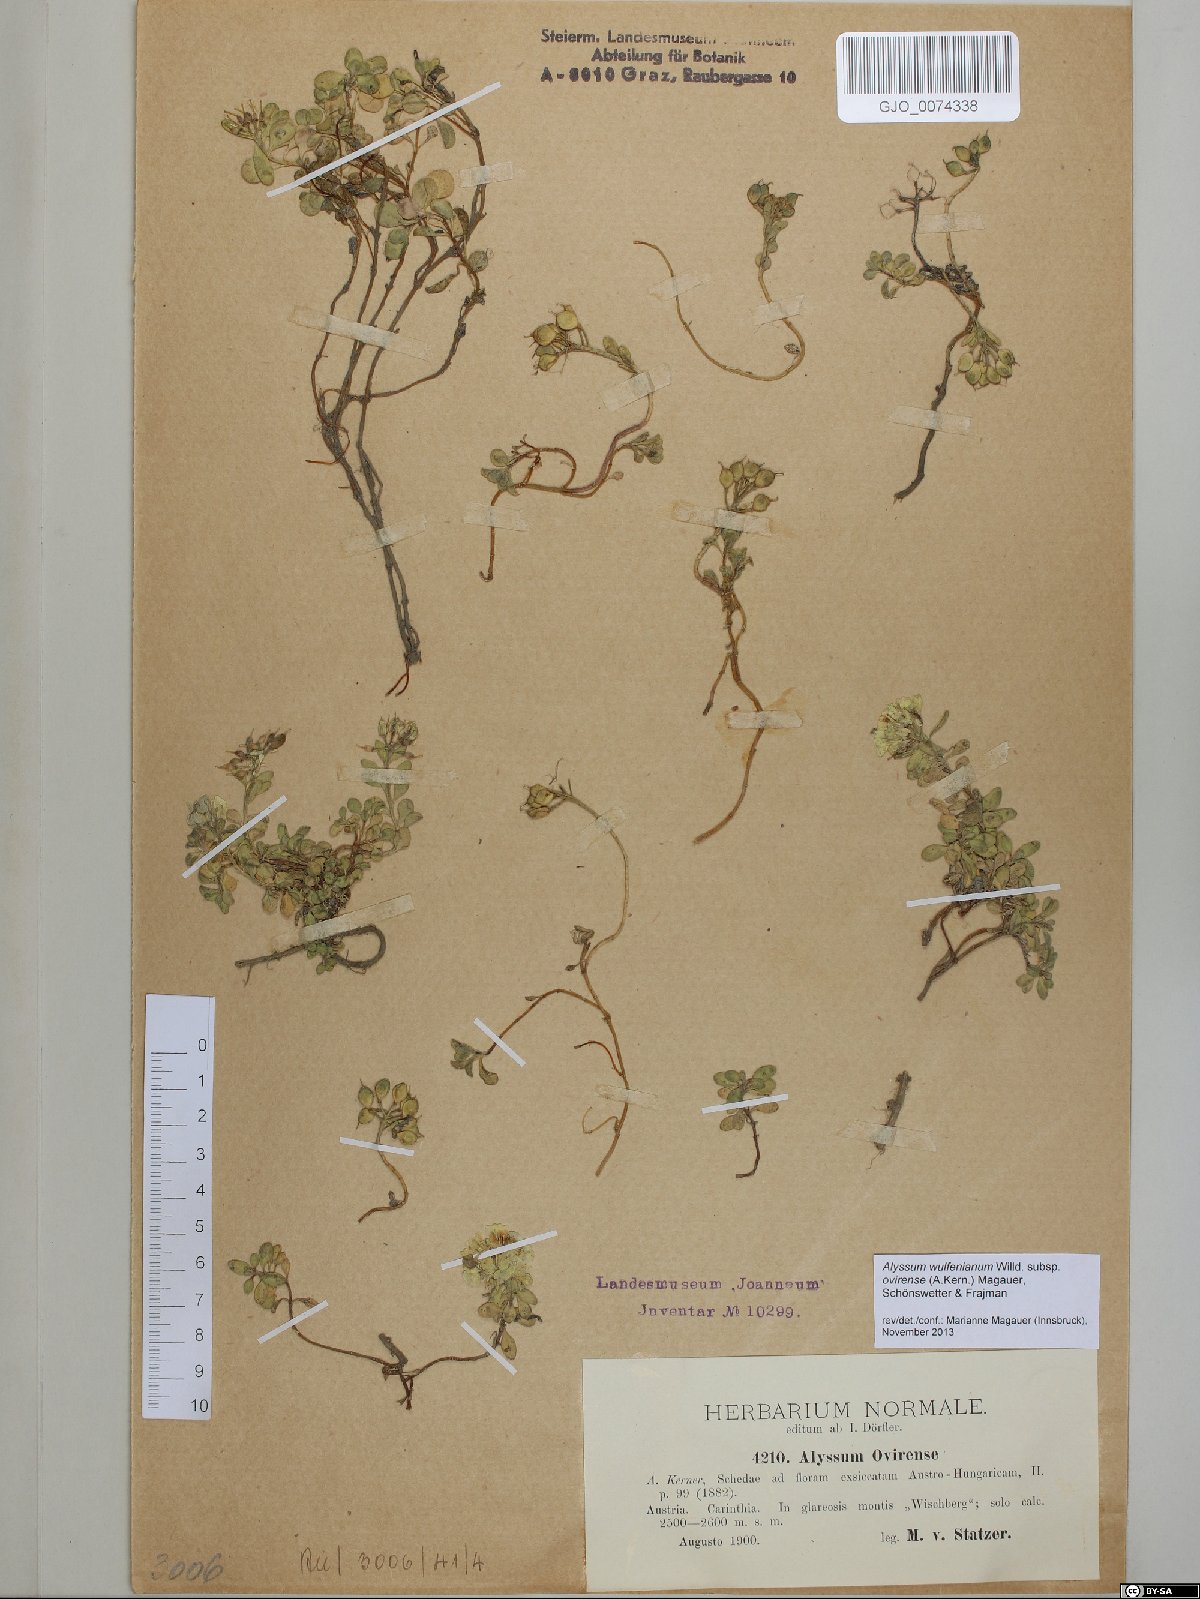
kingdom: Plantae
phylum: Tracheophyta
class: Magnoliopsida
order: Brassicales
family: Brassicaceae
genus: Alyssum
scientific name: Alyssum wulfenianum
